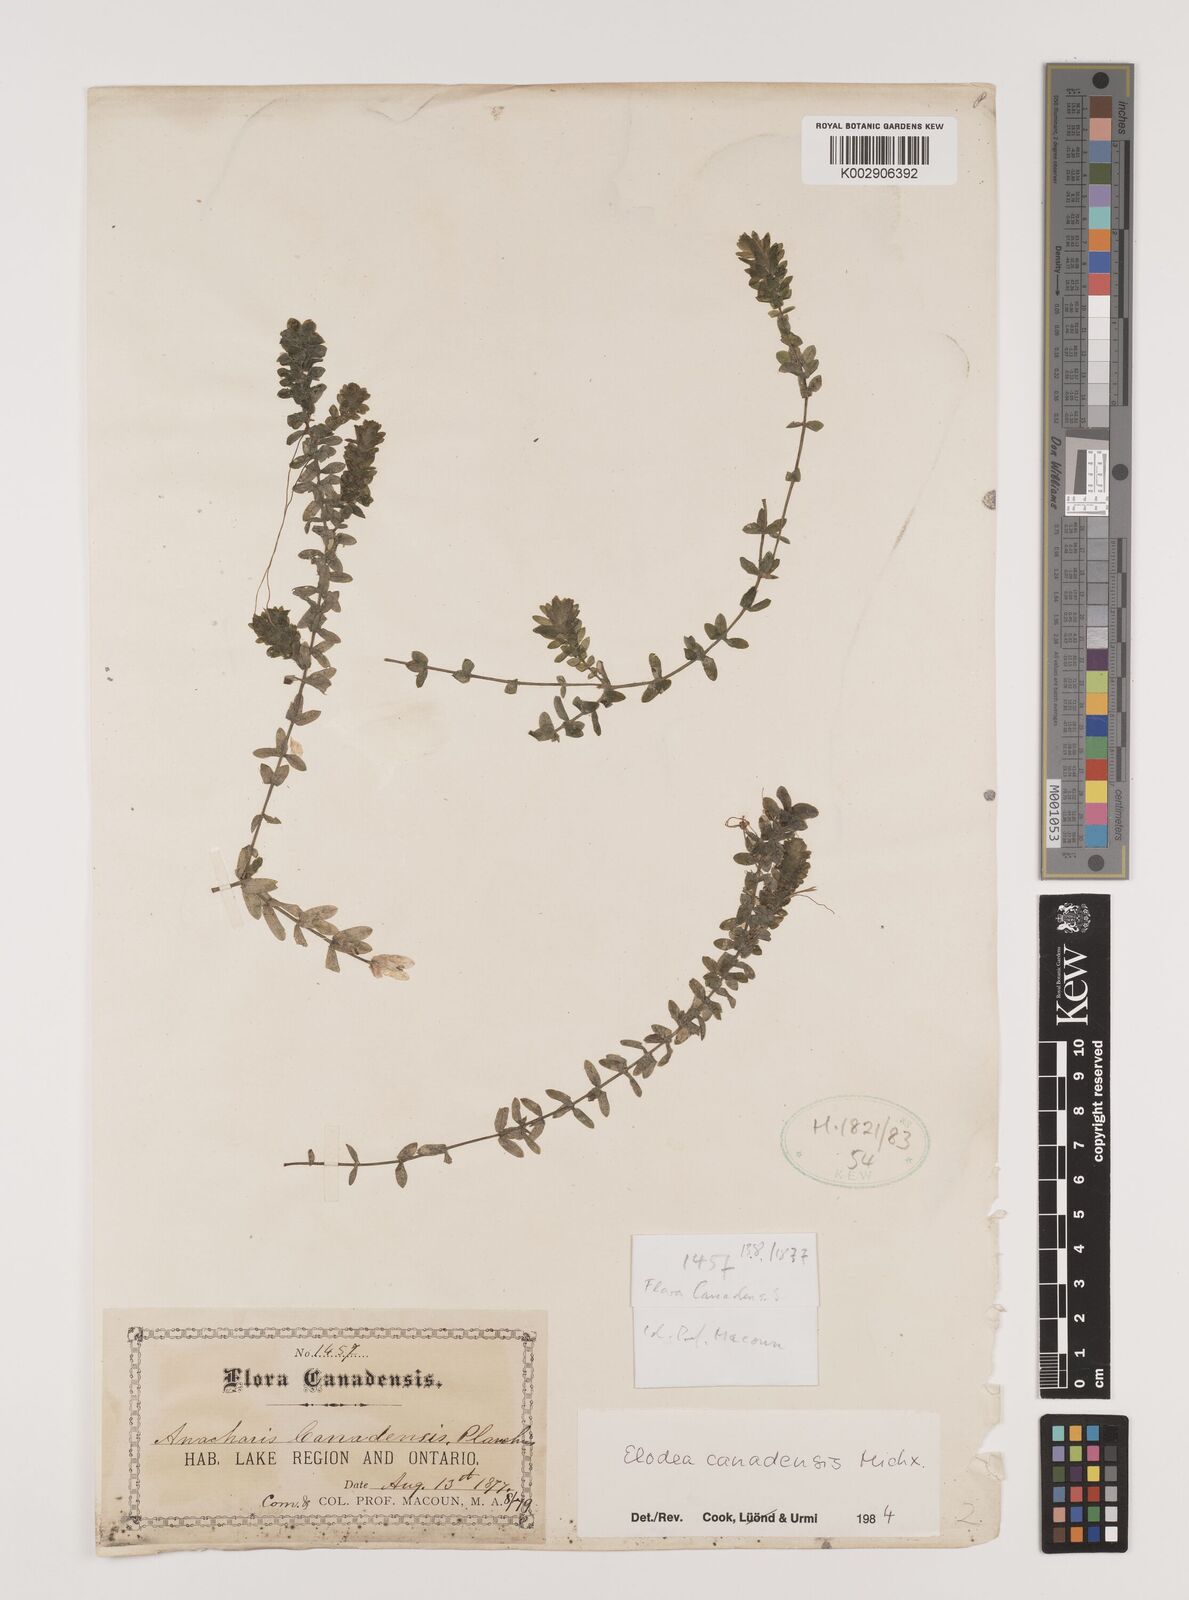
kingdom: Plantae
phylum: Tracheophyta
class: Liliopsida
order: Alismatales
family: Hydrocharitaceae
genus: Elodea
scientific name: Elodea canadensis
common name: Canadian waterweed
